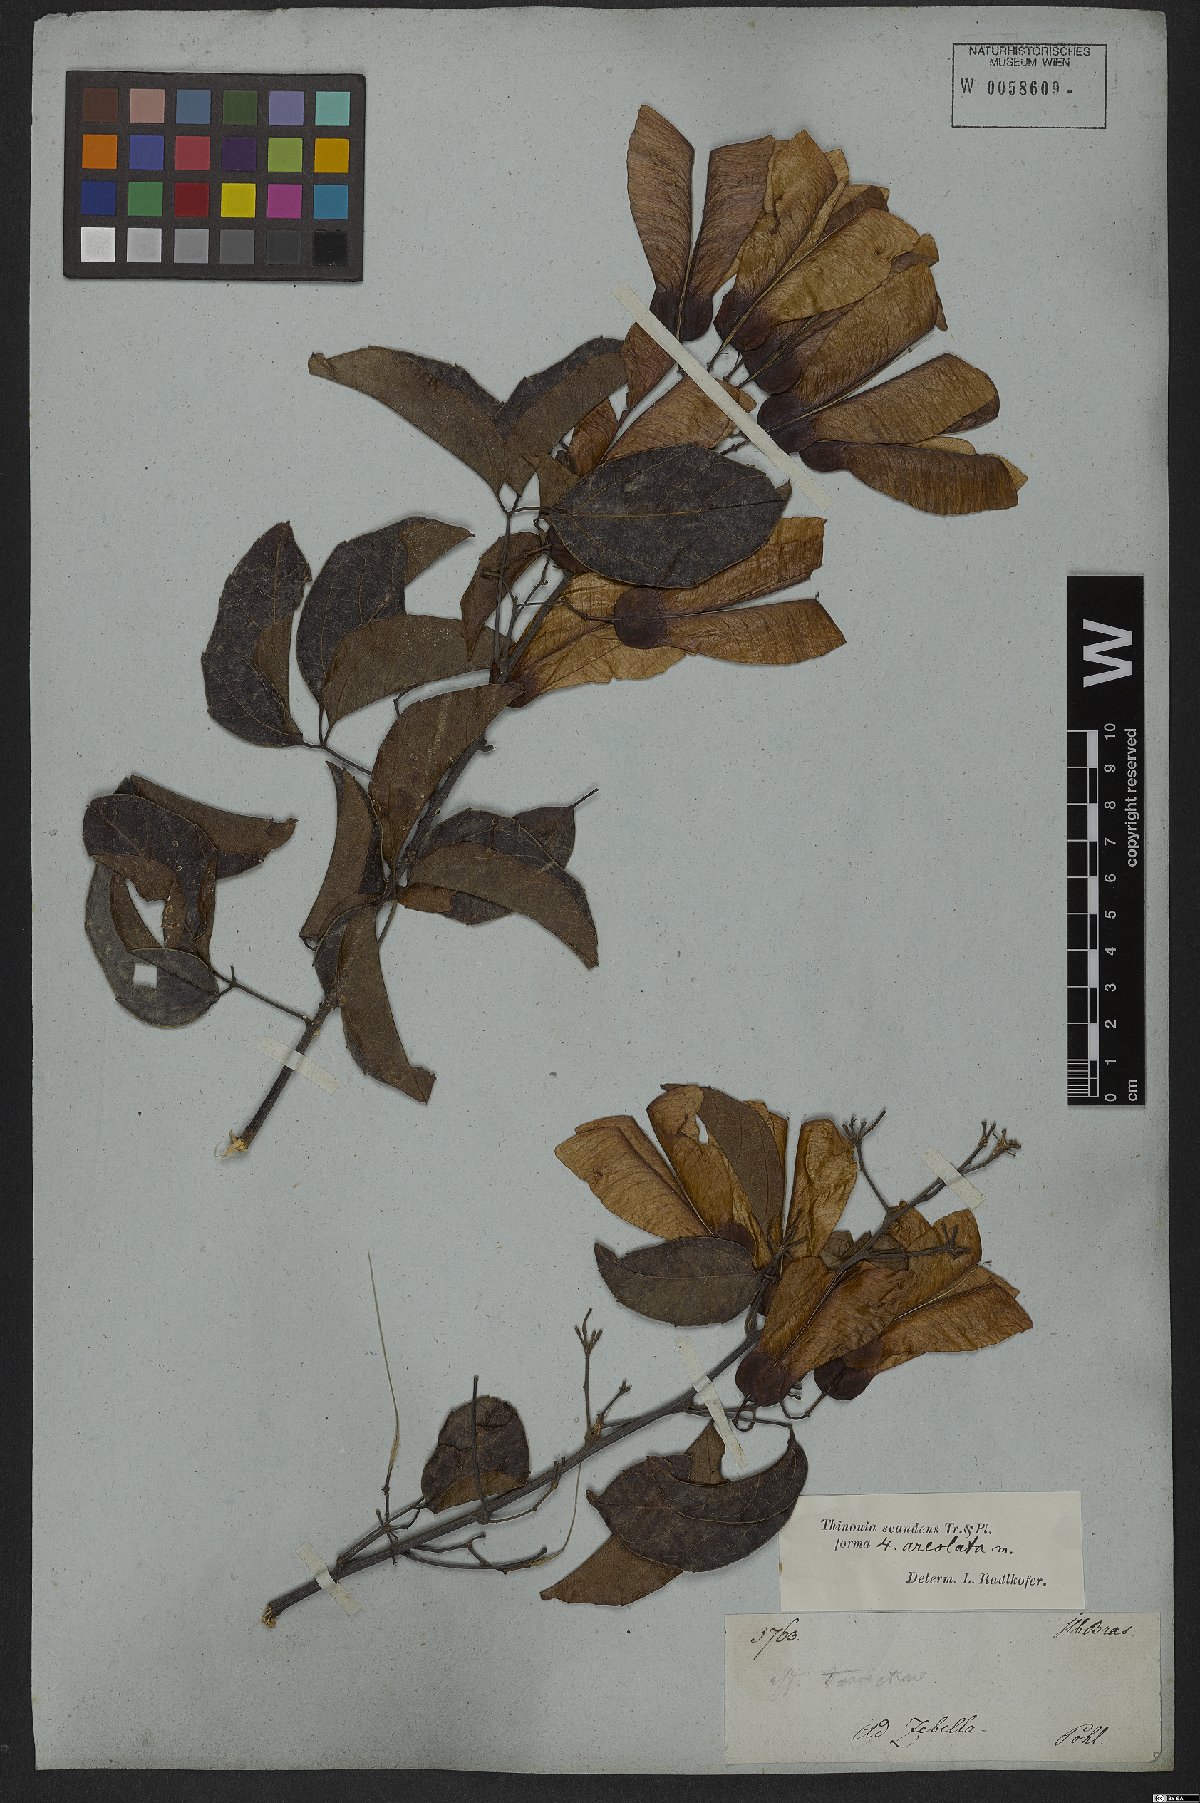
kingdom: Plantae
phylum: Tracheophyta
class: Magnoliopsida
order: Sapindales
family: Sapindaceae
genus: Thinouia
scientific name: Thinouia scandens
